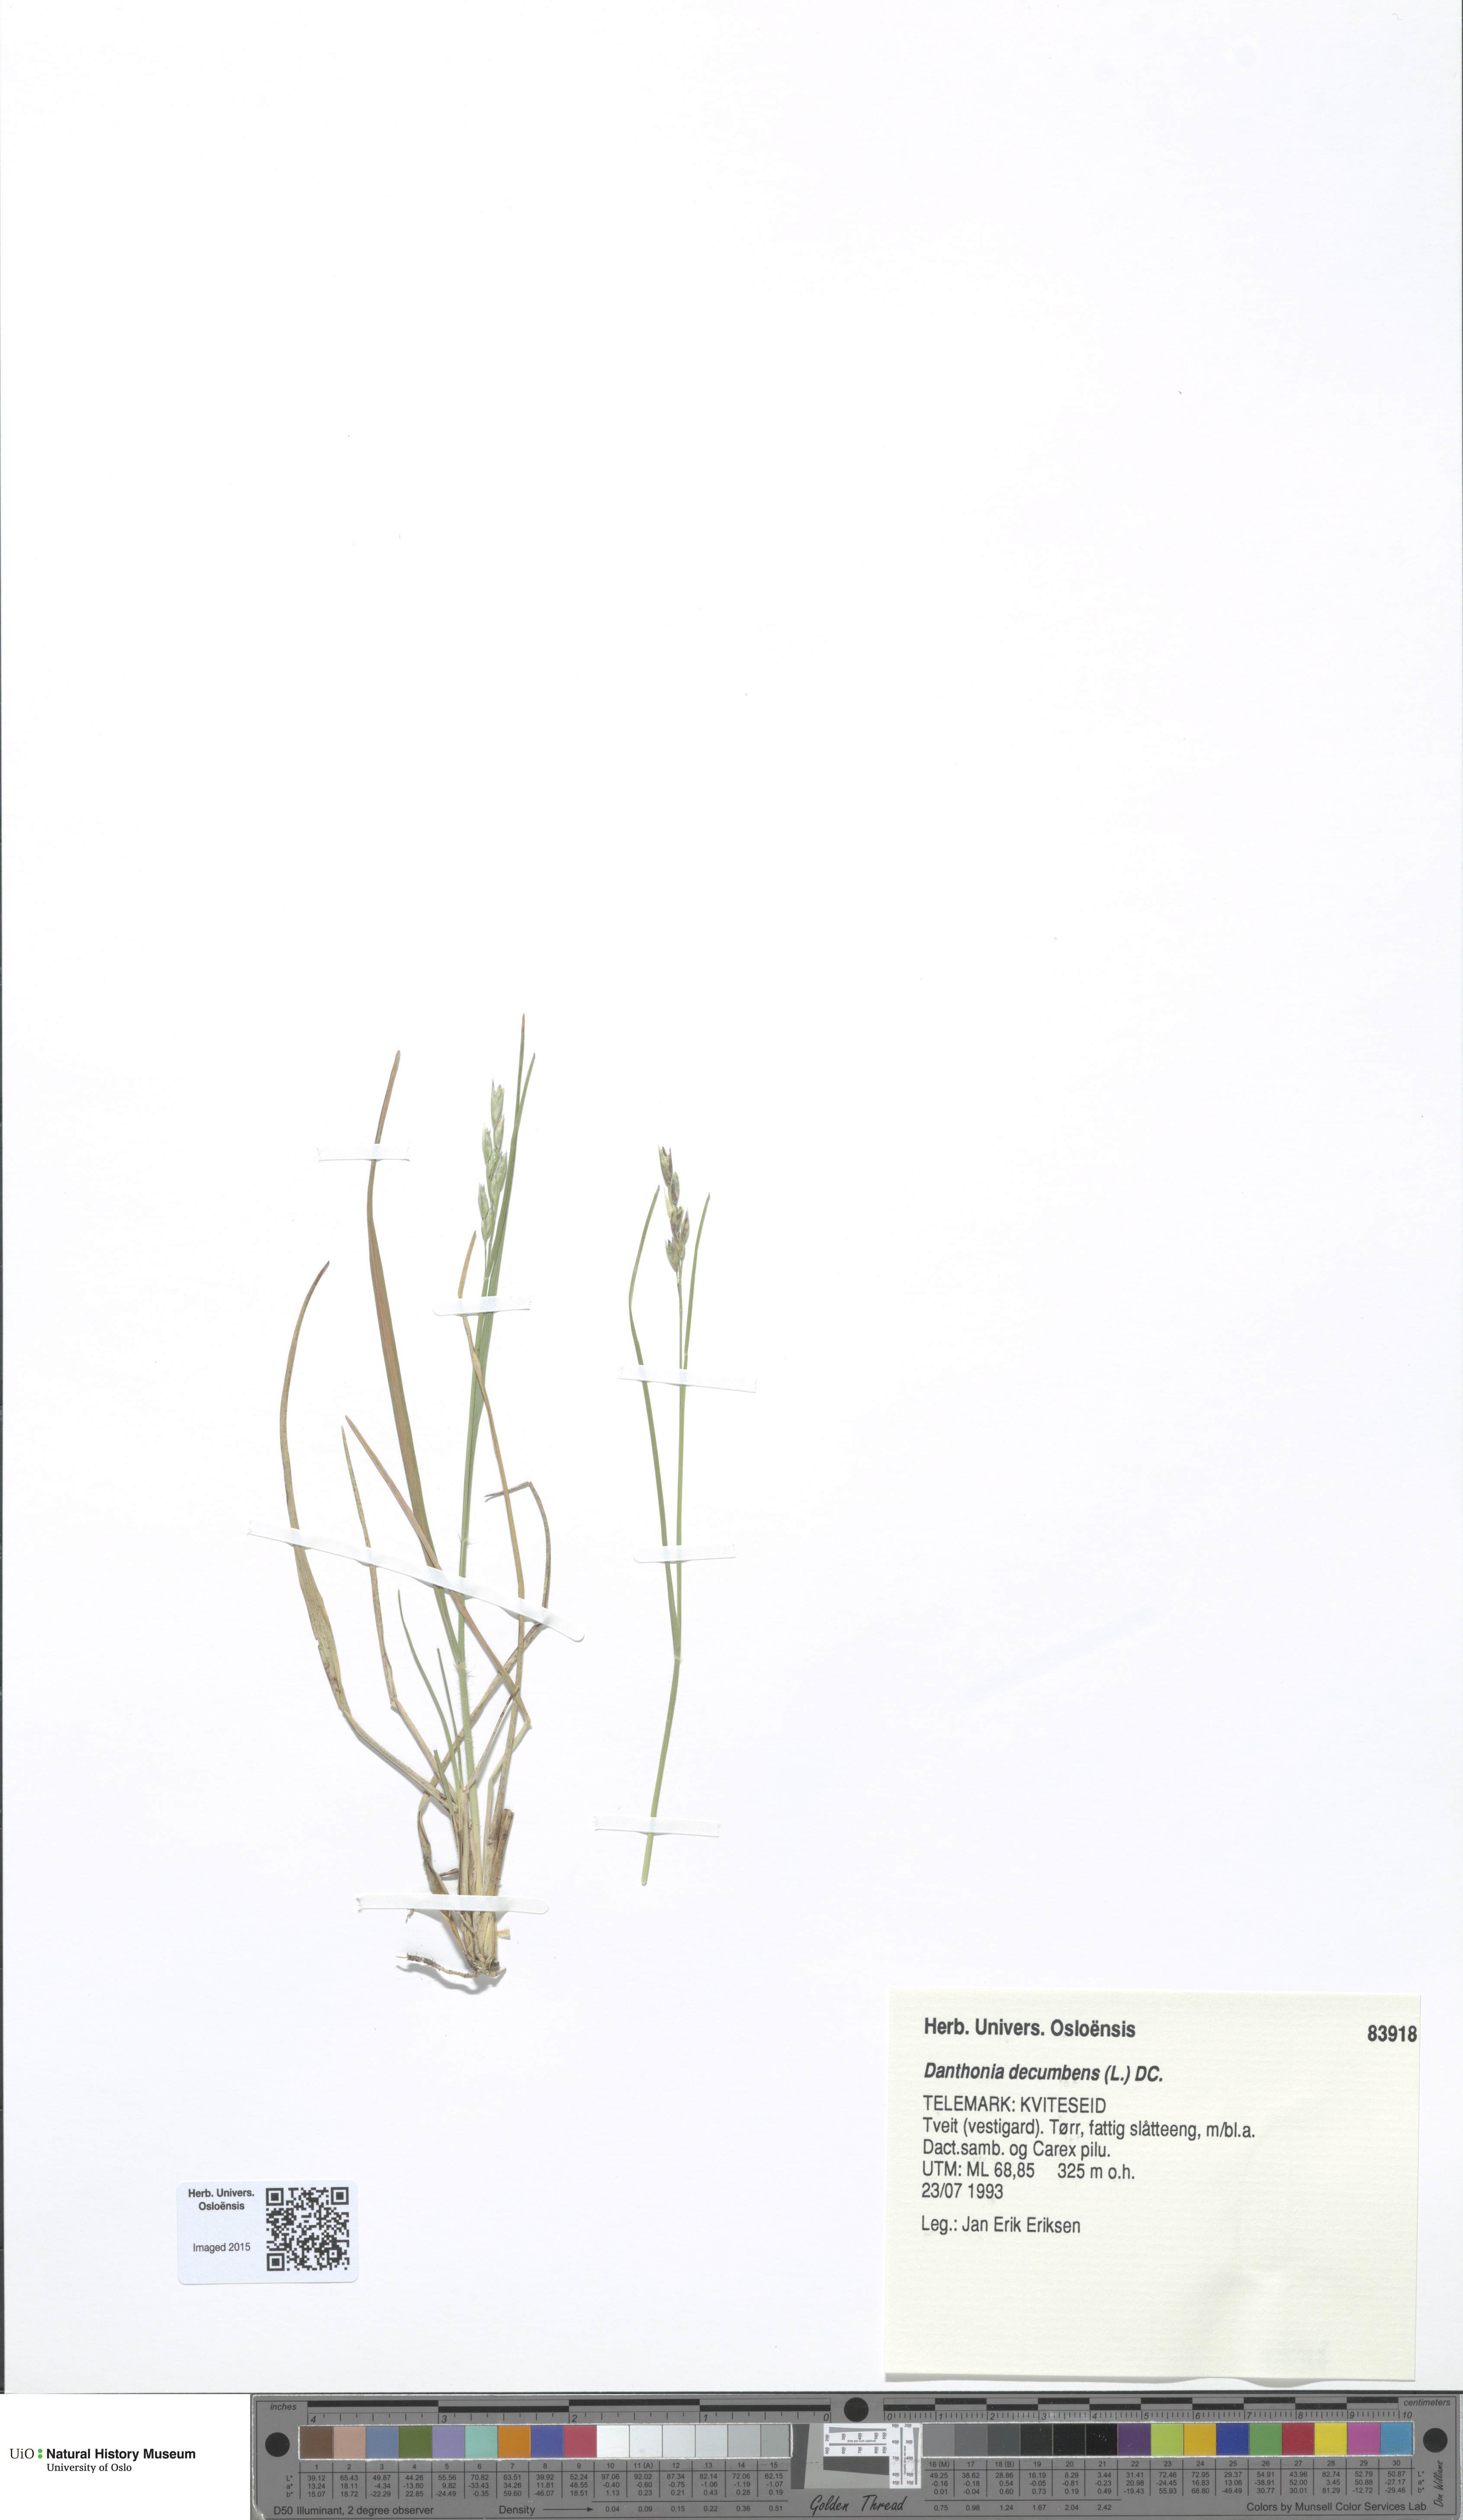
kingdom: Plantae
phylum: Tracheophyta
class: Liliopsida
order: Poales
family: Poaceae
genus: Danthonia
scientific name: Danthonia decumbens
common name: Common heathgrass
